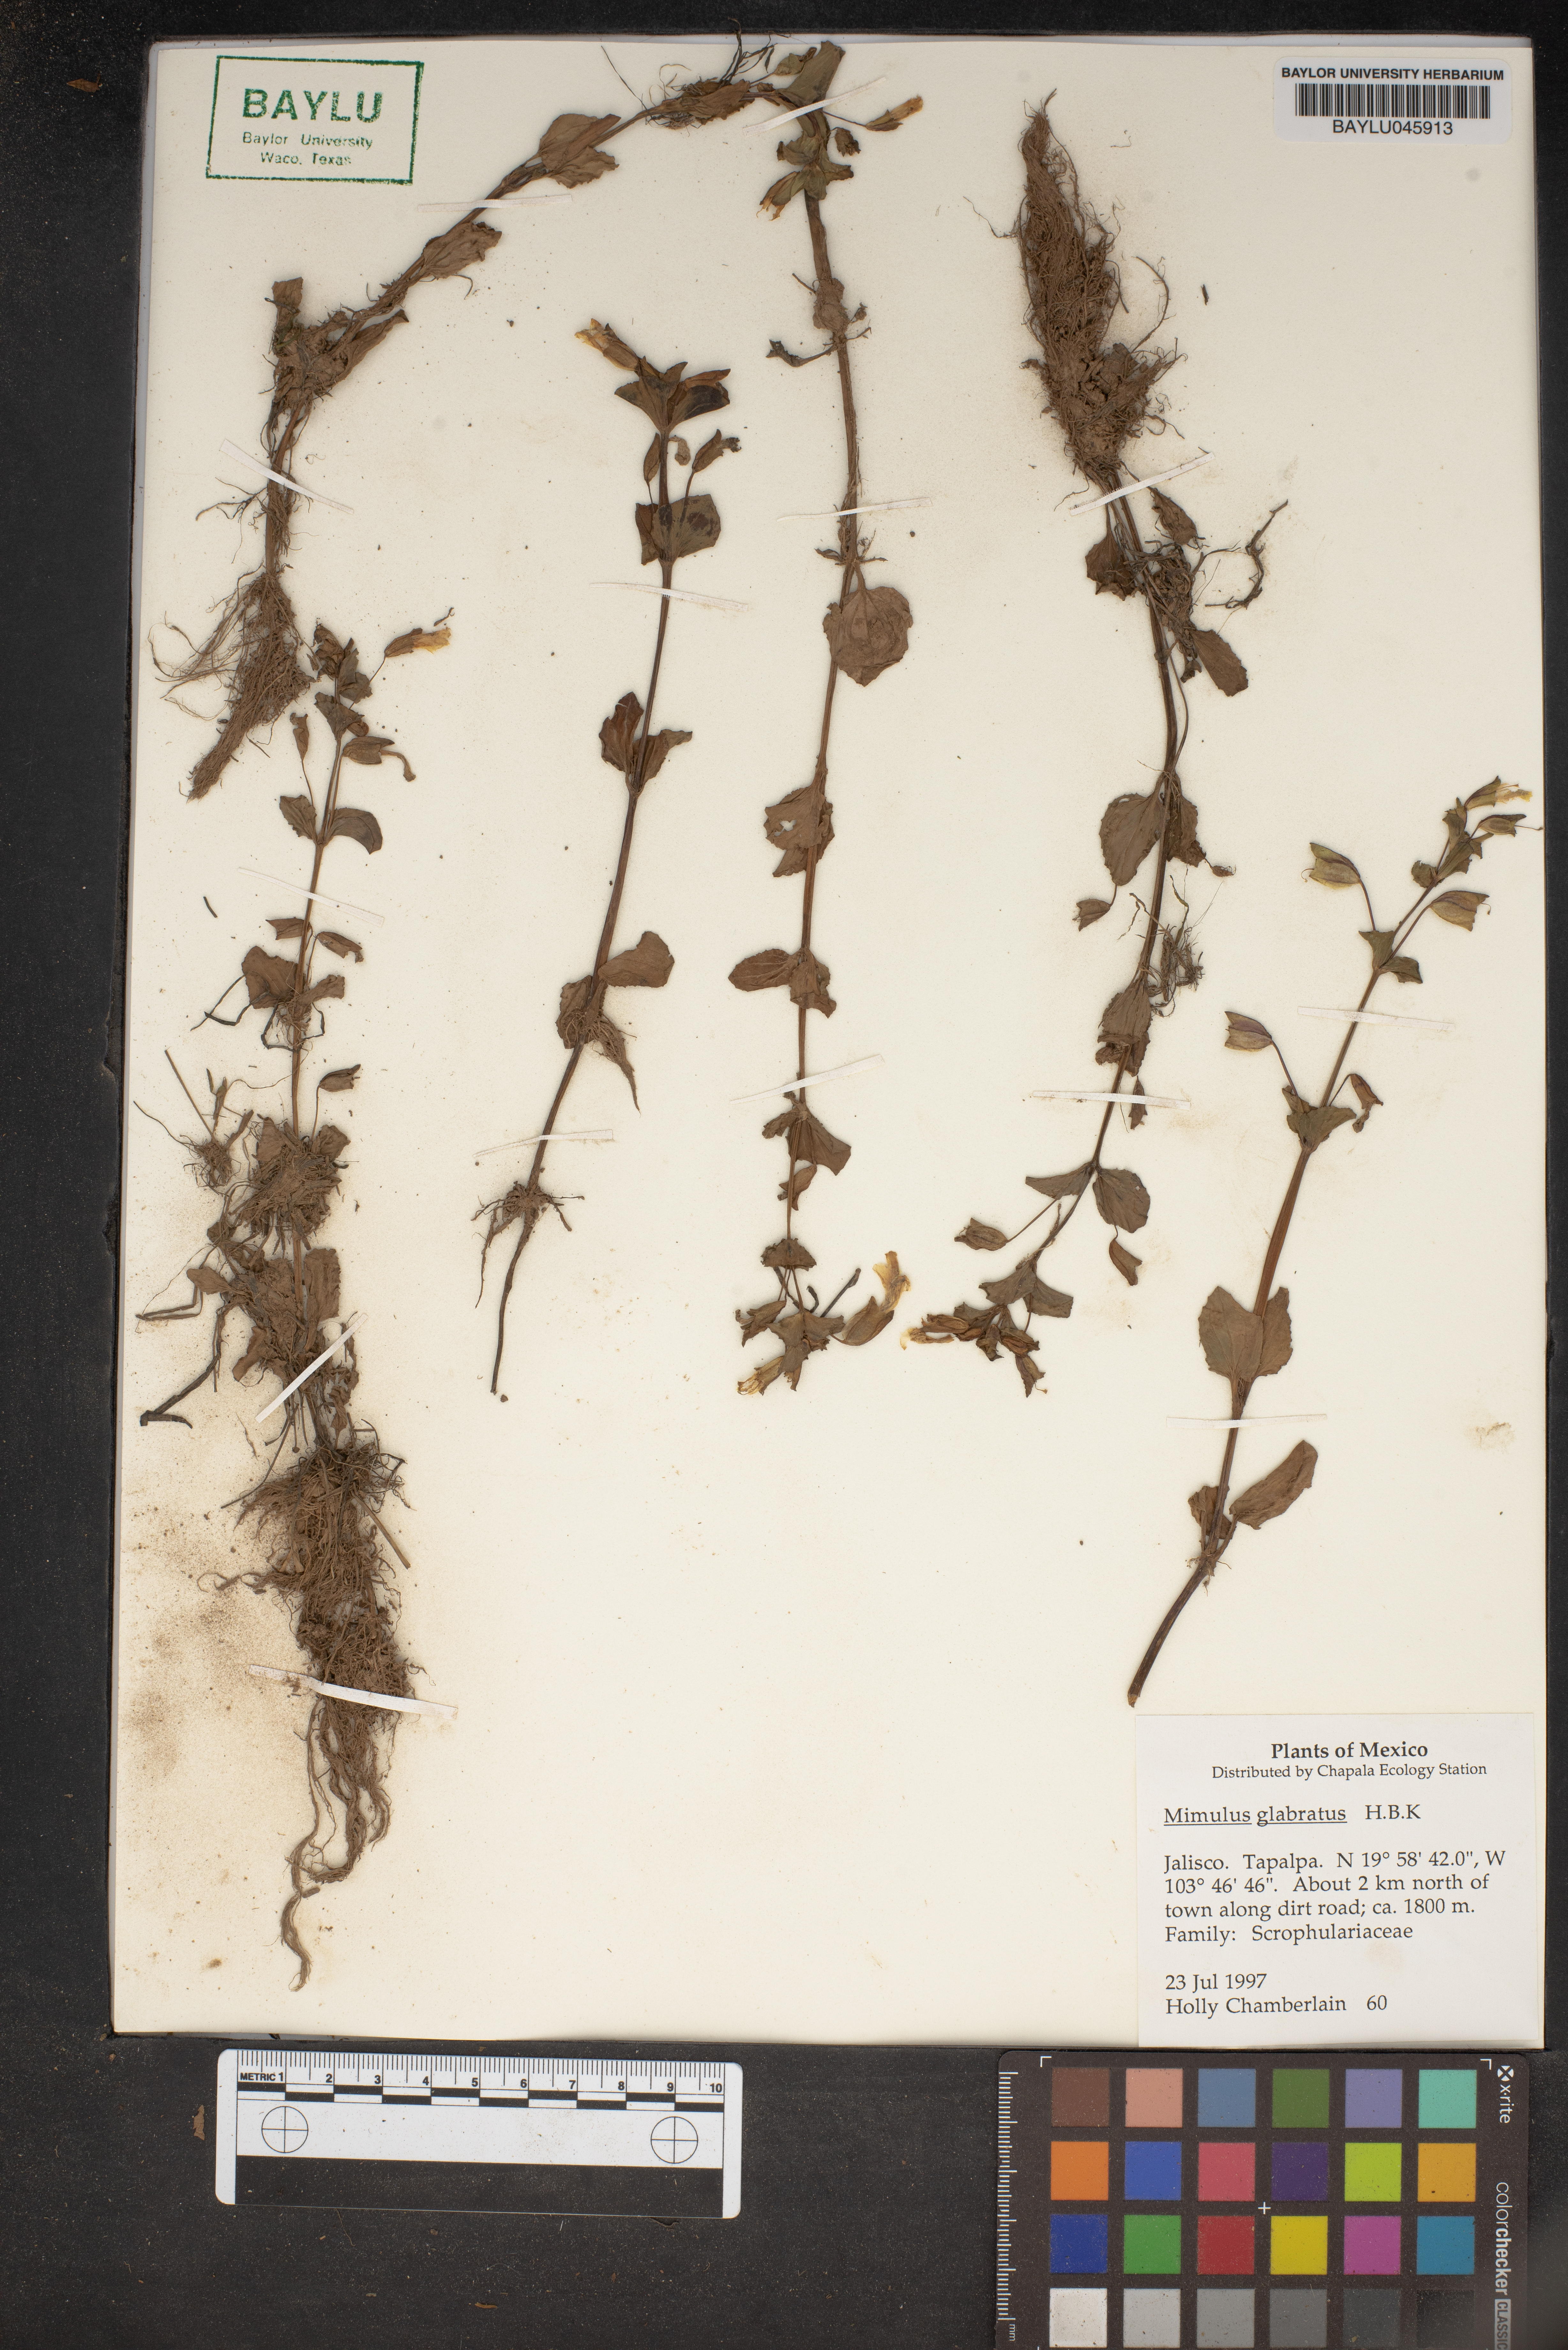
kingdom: Plantae
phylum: Tracheophyta
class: Magnoliopsida
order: Lamiales
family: Phrymaceae
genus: Erythranthe
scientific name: Erythranthe glabrata
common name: Round-leaved monkeyflower
